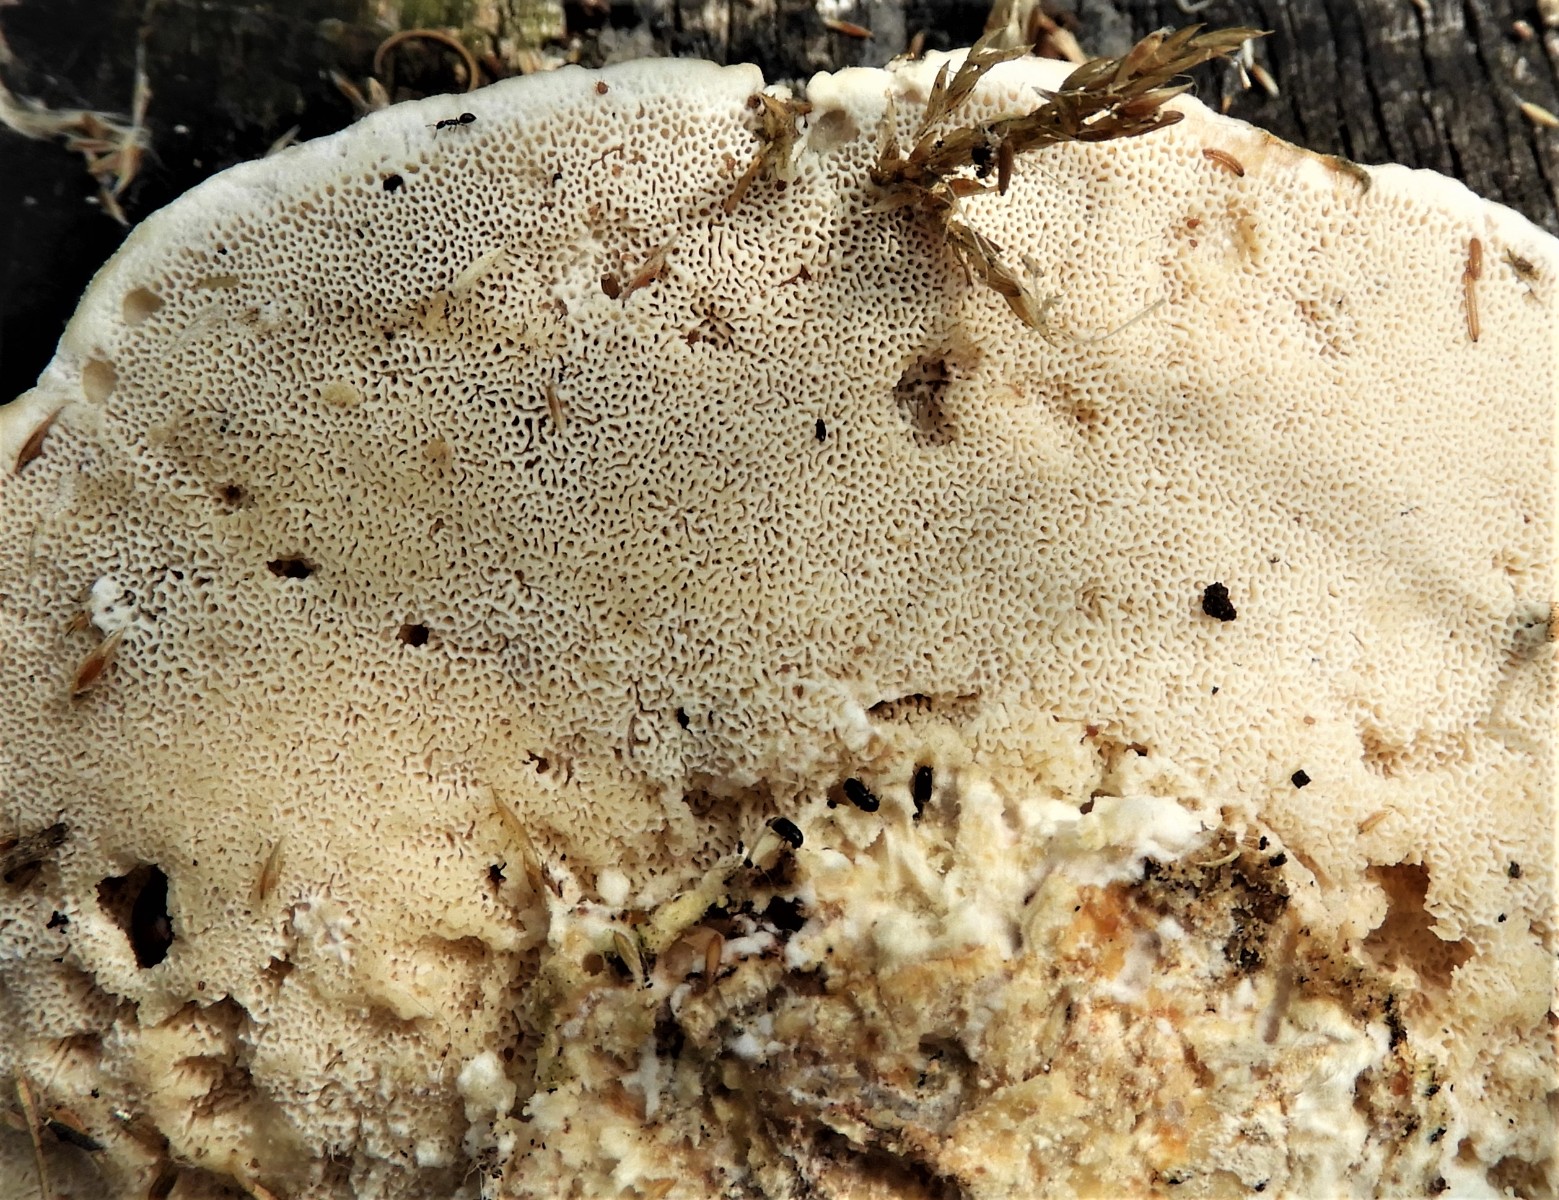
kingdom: Fungi
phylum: Basidiomycota
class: Agaricomycetes
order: Polyporales
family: Polyporaceae
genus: Trametes
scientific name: Trametes hirsuta
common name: håret læderporesvamp
